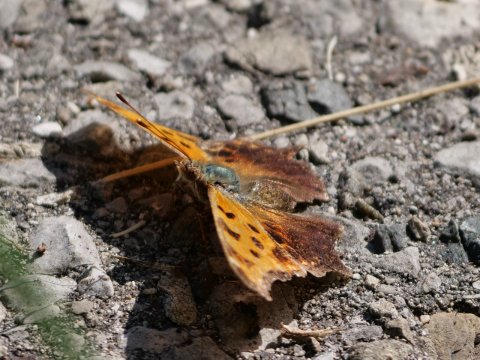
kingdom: Animalia
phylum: Arthropoda
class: Insecta
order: Lepidoptera
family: Nymphalidae
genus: Polygonia
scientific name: Polygonia comma
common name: Eastern Comma
